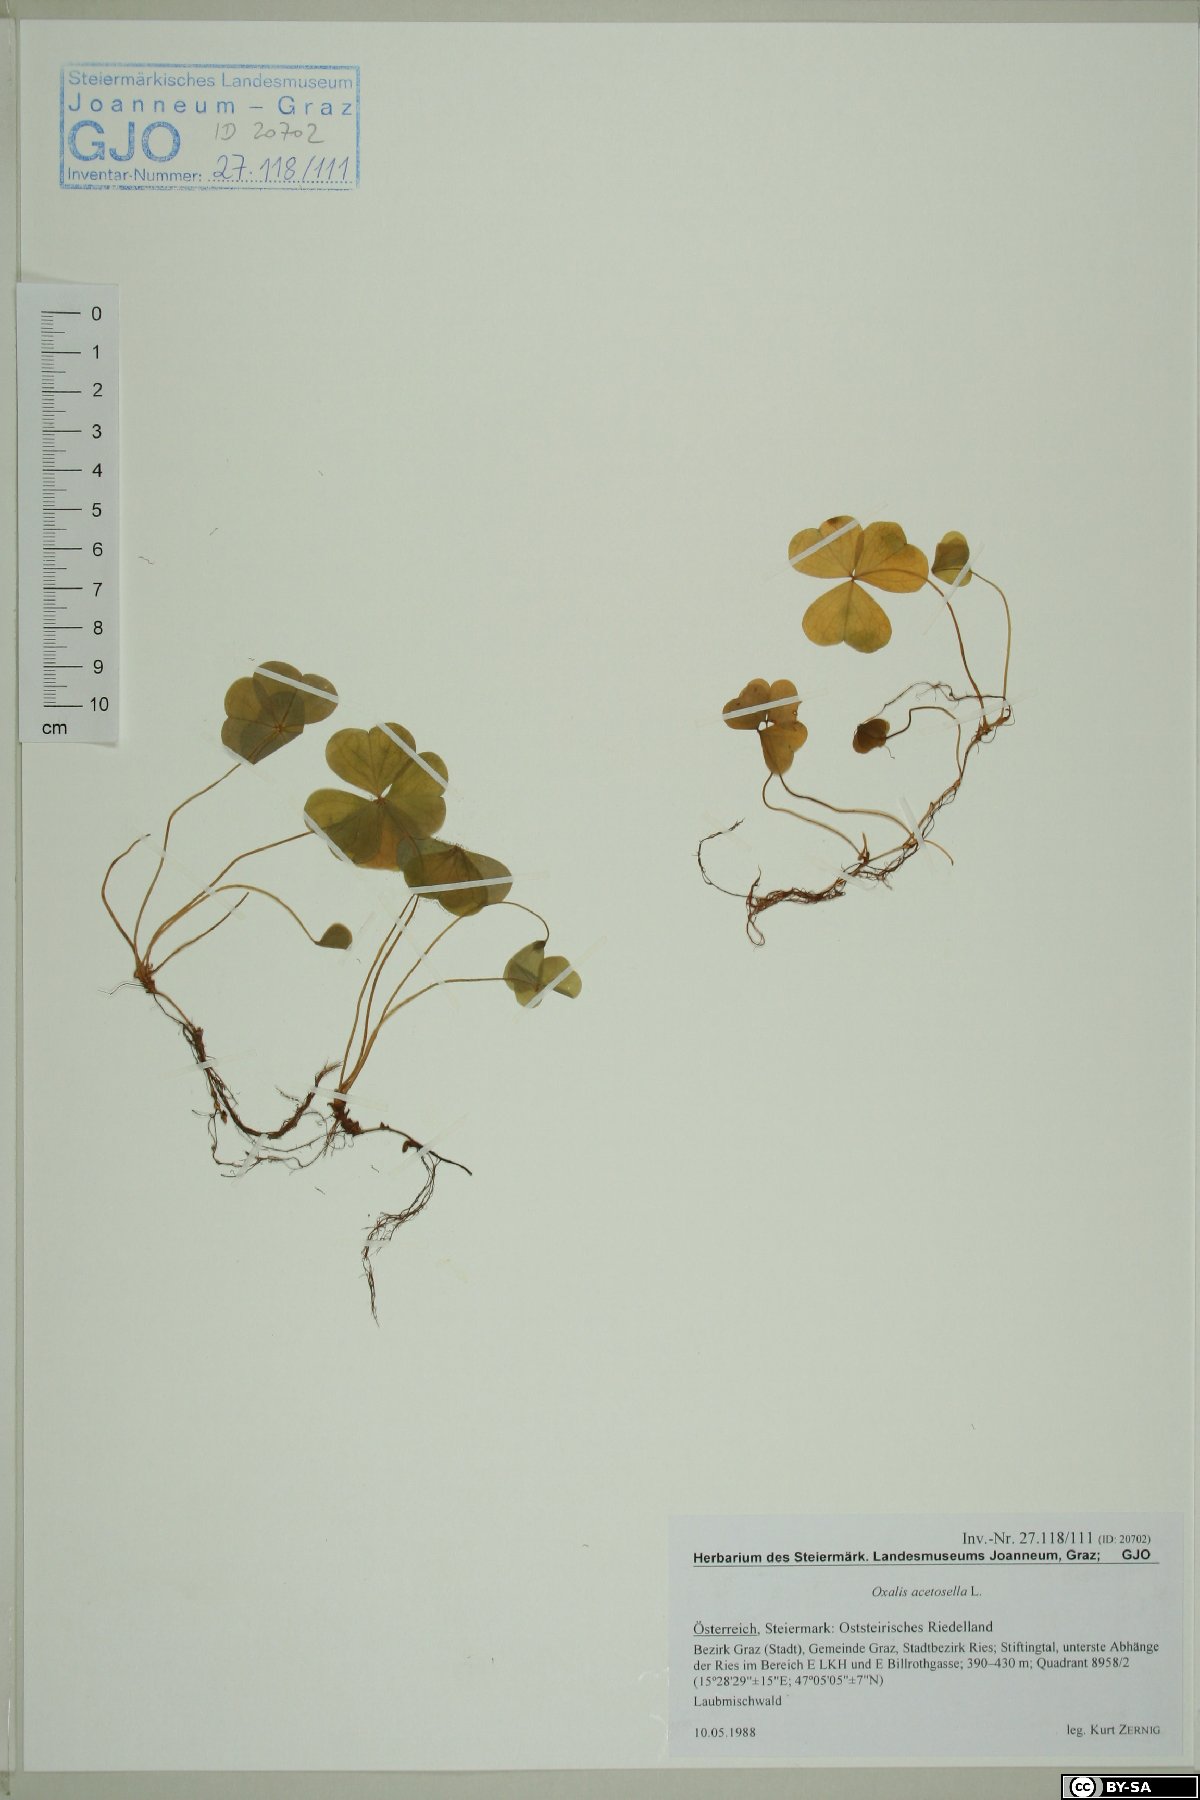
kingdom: Plantae
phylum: Tracheophyta
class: Magnoliopsida
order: Oxalidales
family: Oxalidaceae
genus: Oxalis
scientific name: Oxalis acetosella
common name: Wood-sorrel
